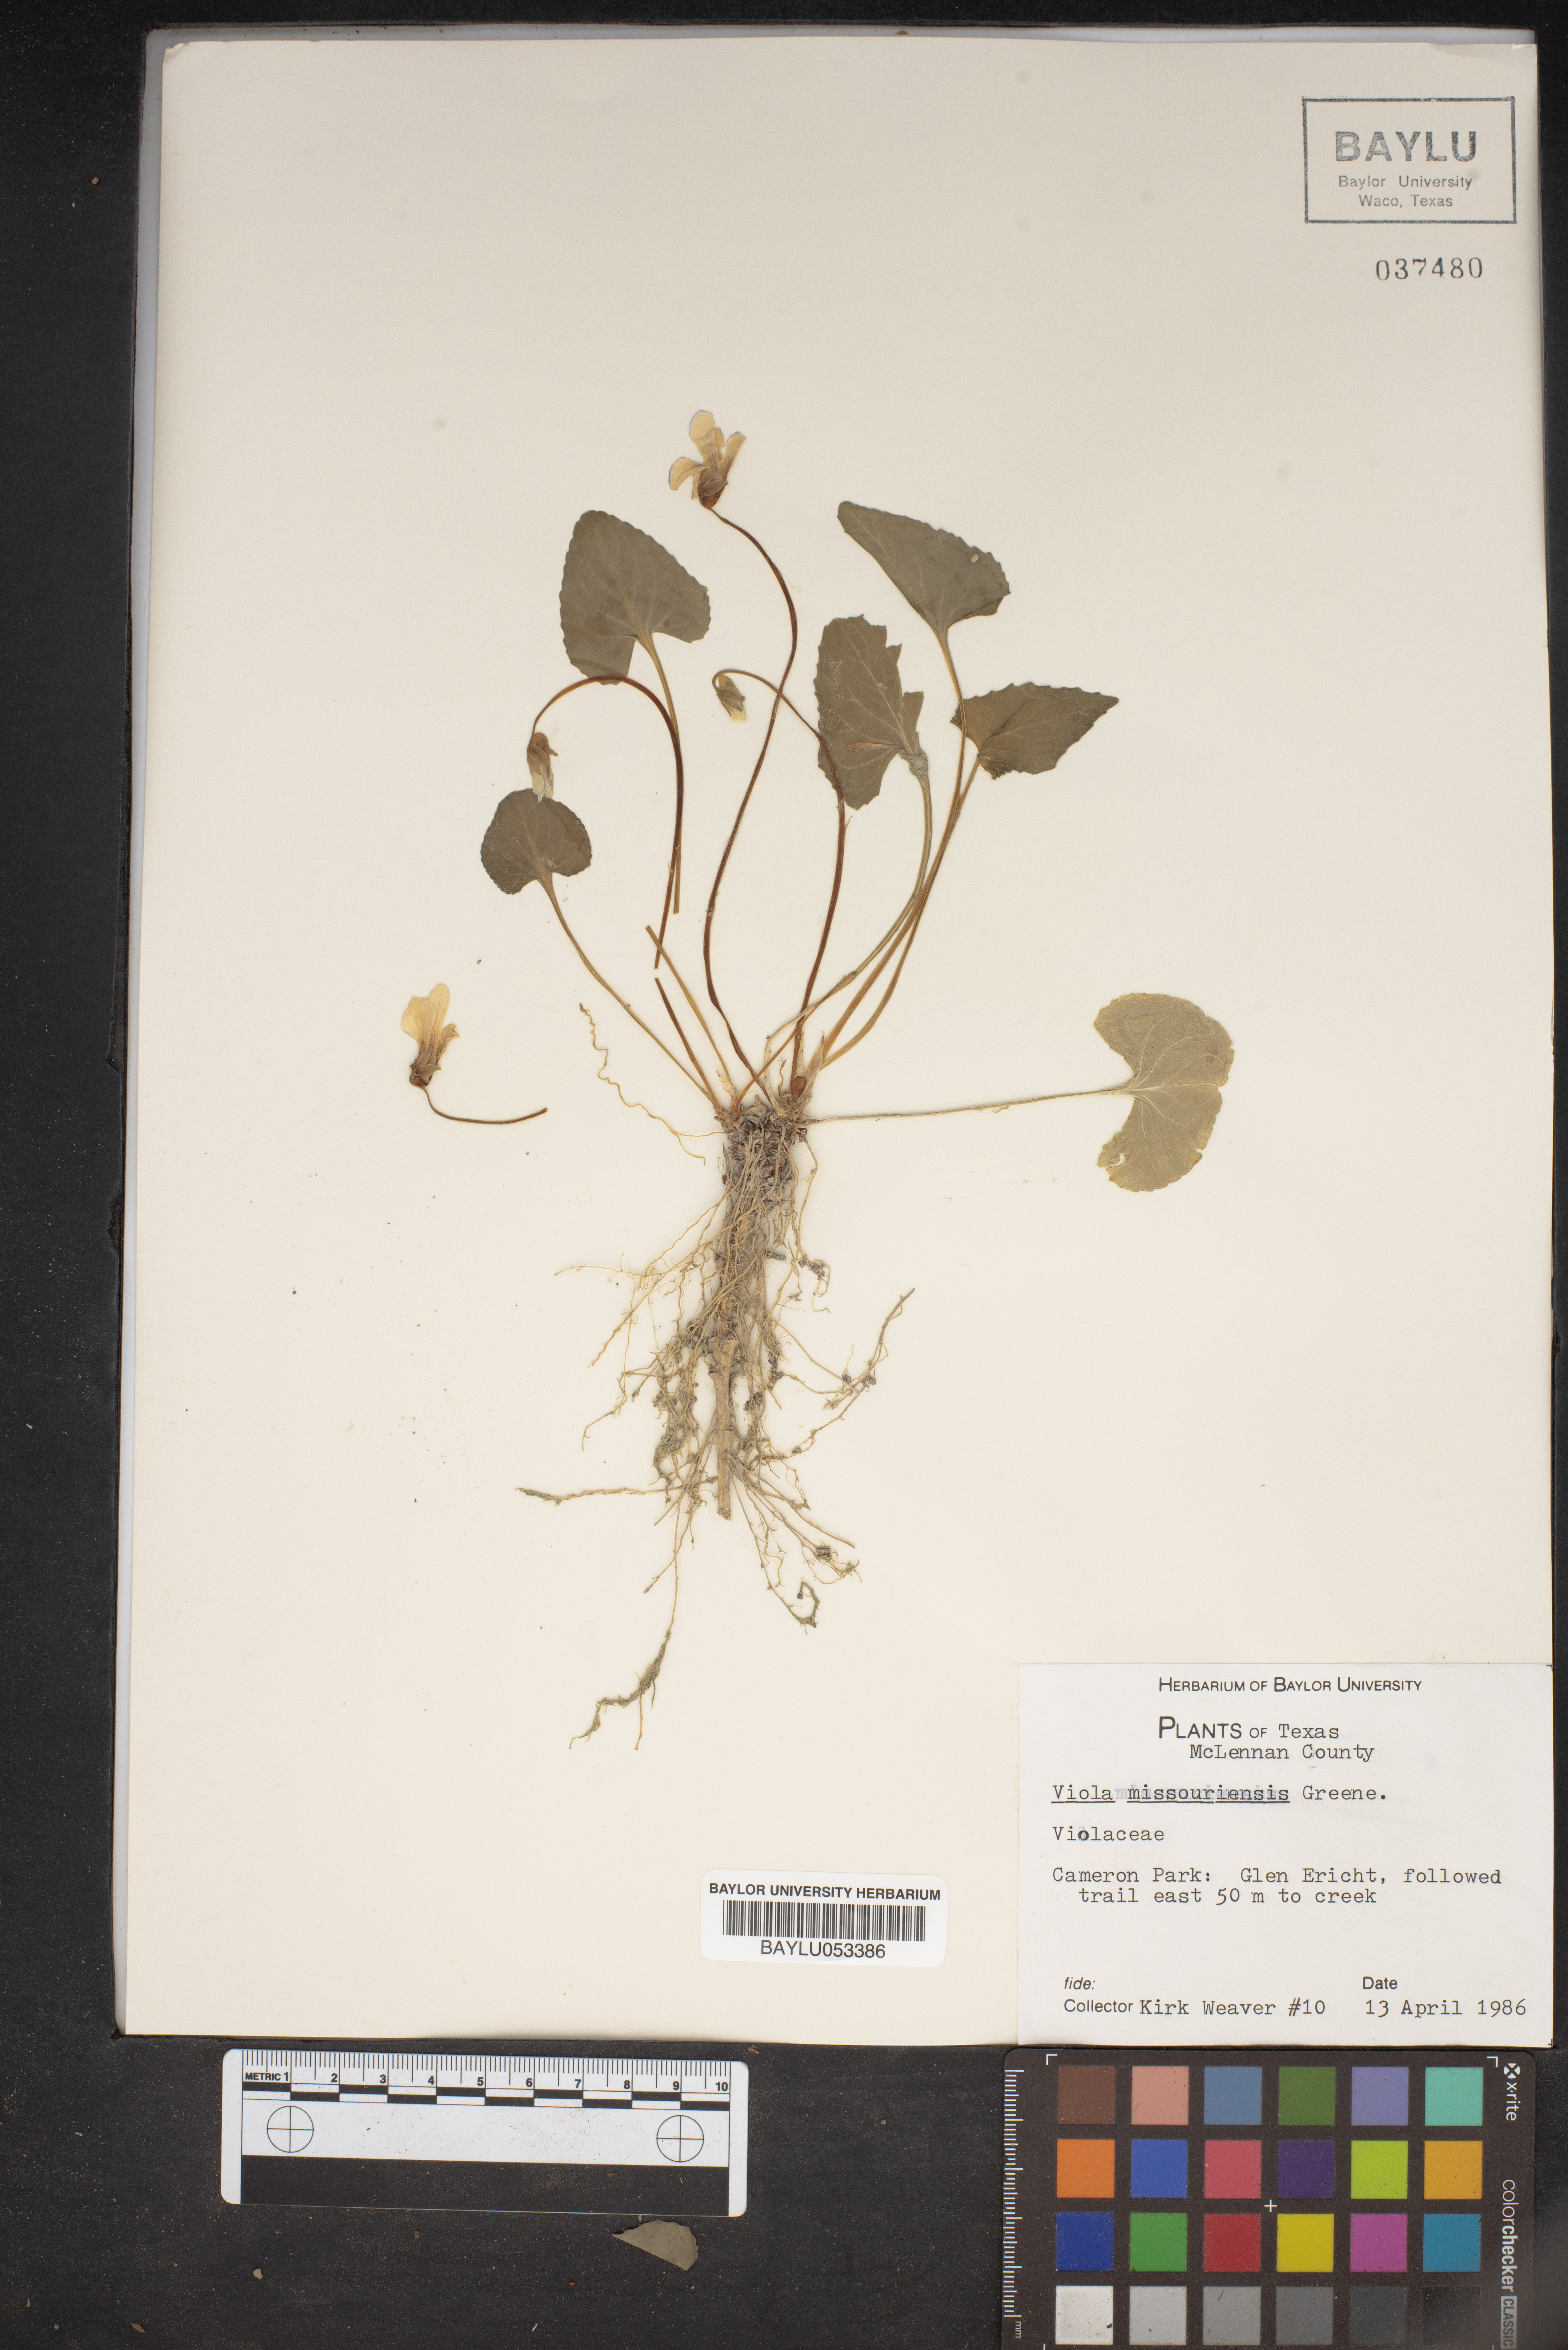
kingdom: Plantae
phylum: Tracheophyta
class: Magnoliopsida
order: Malpighiales
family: Violaceae
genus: Viola
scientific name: Viola missouriensis
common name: Missouri violet
